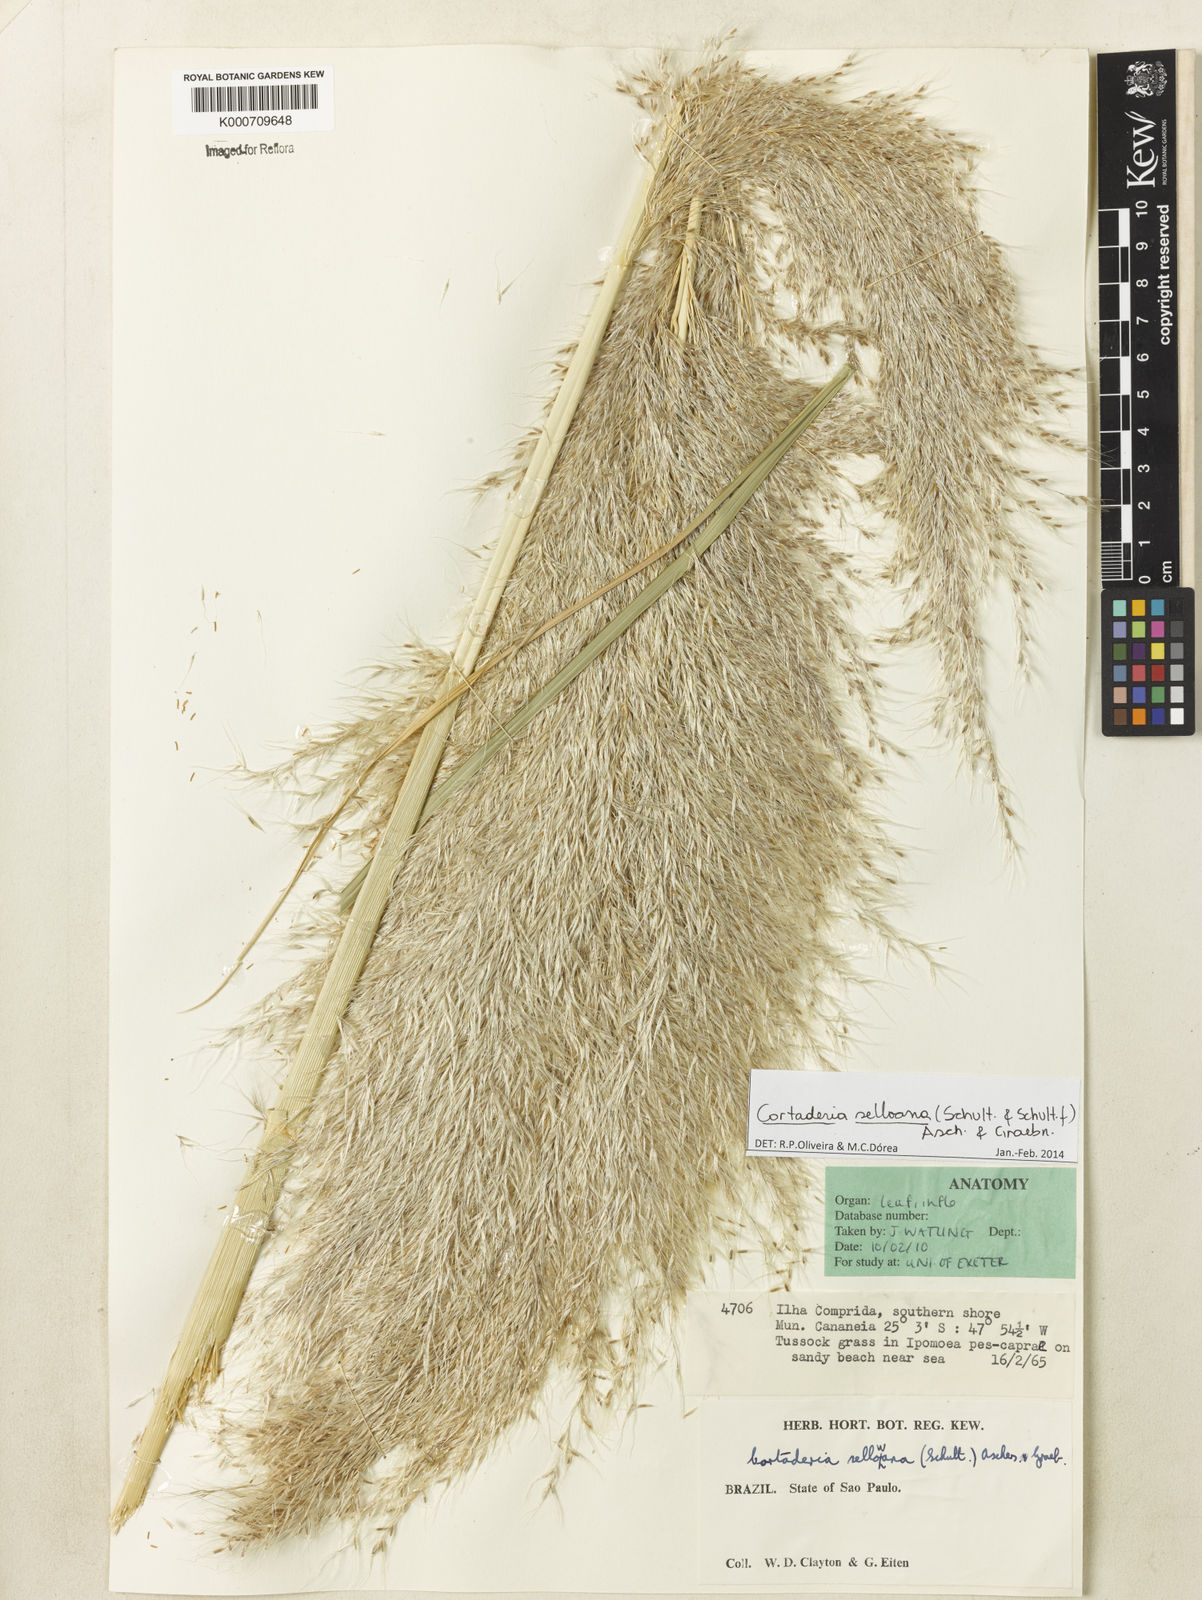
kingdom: Plantae
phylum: Tracheophyta
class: Liliopsida
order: Poales
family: Poaceae
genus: Cortaderia
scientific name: Cortaderia selloana
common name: Uruguayan pampas grass
